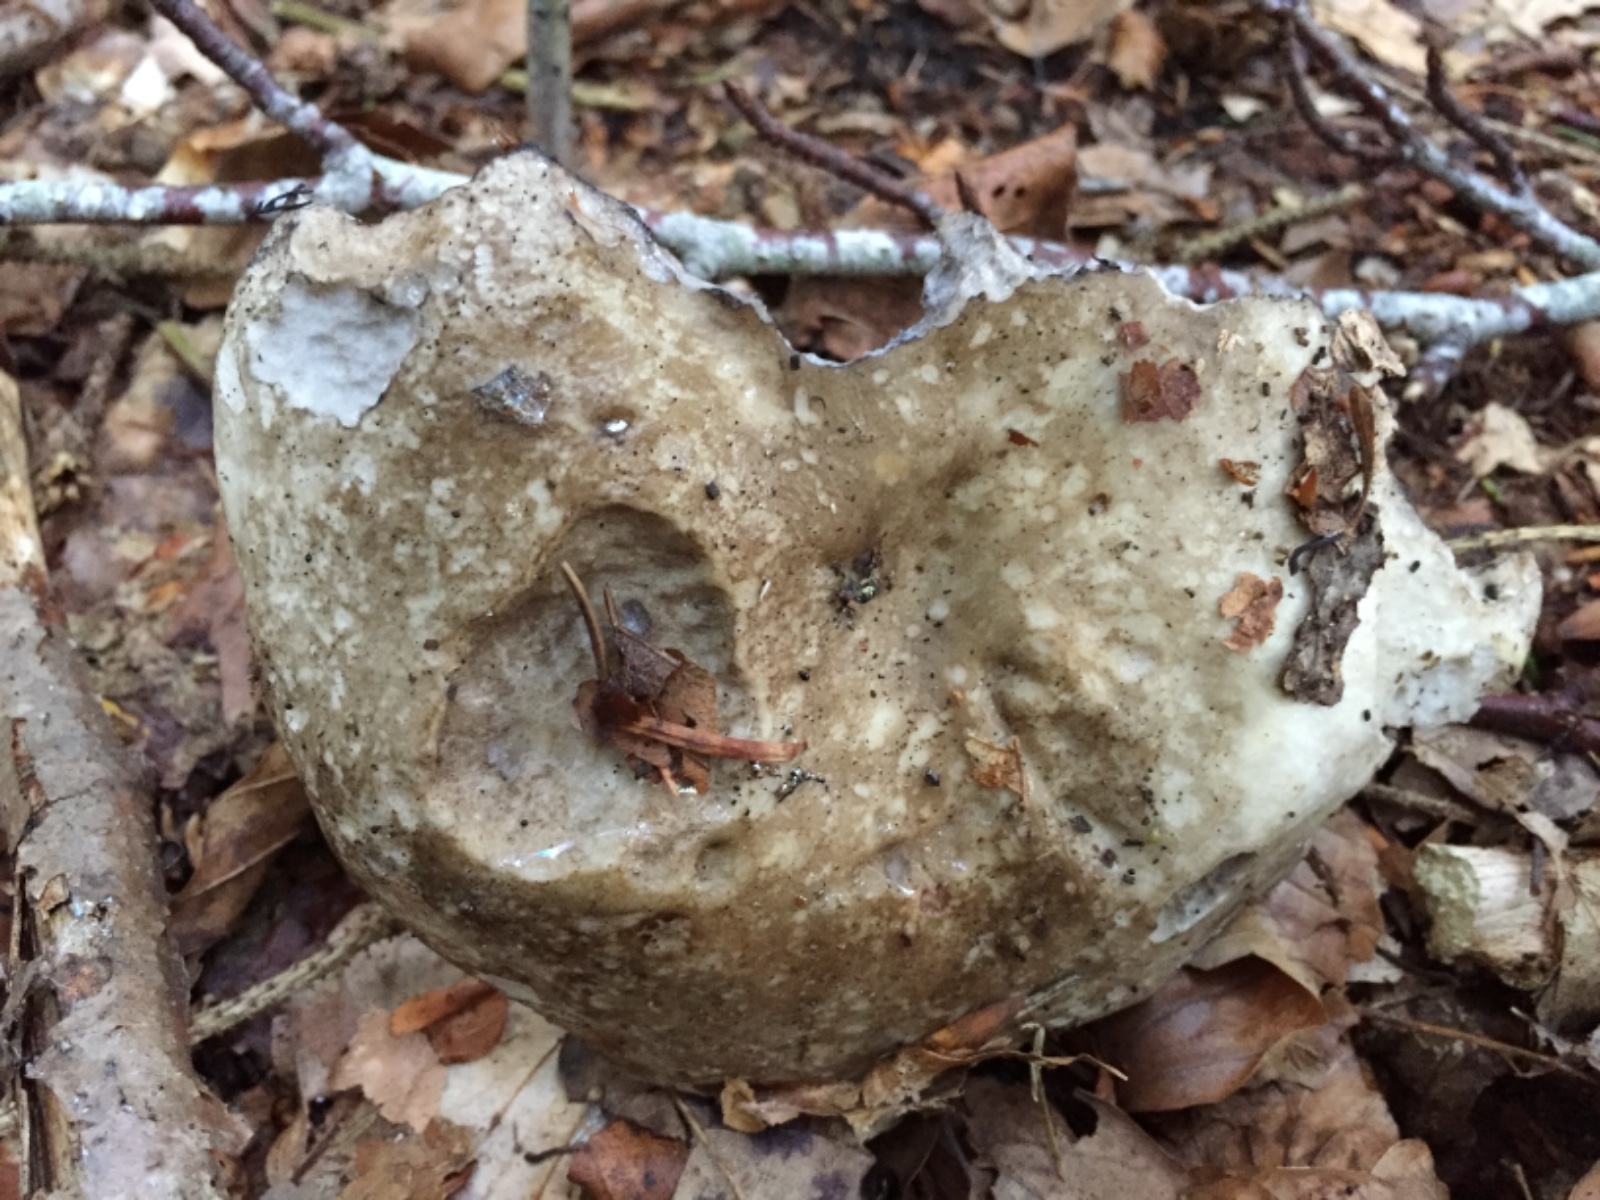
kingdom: Fungi
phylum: Basidiomycota
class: Agaricomycetes
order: Russulales
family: Russulaceae
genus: Russula
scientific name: Russula acrifolia
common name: skarpbladet skørhat
